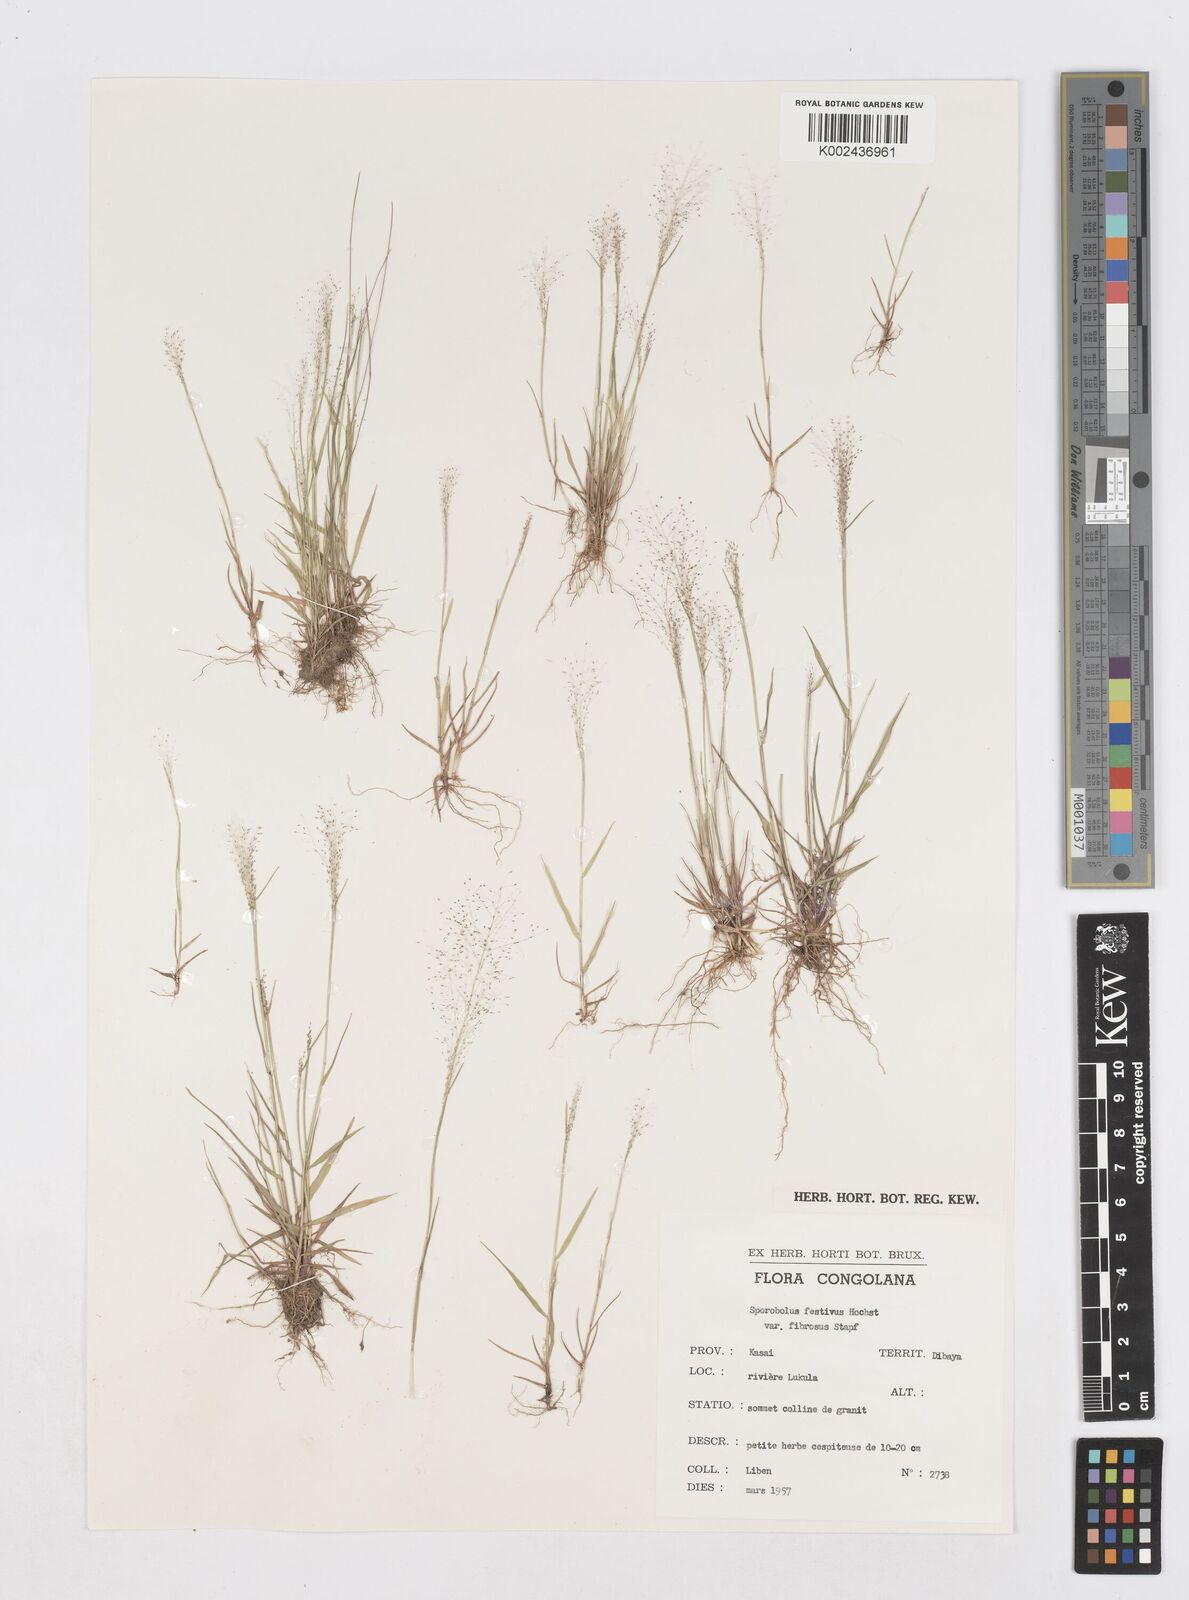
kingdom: Plantae
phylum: Tracheophyta
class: Liliopsida
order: Poales
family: Poaceae
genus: Sporobolus
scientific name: Sporobolus festivus
